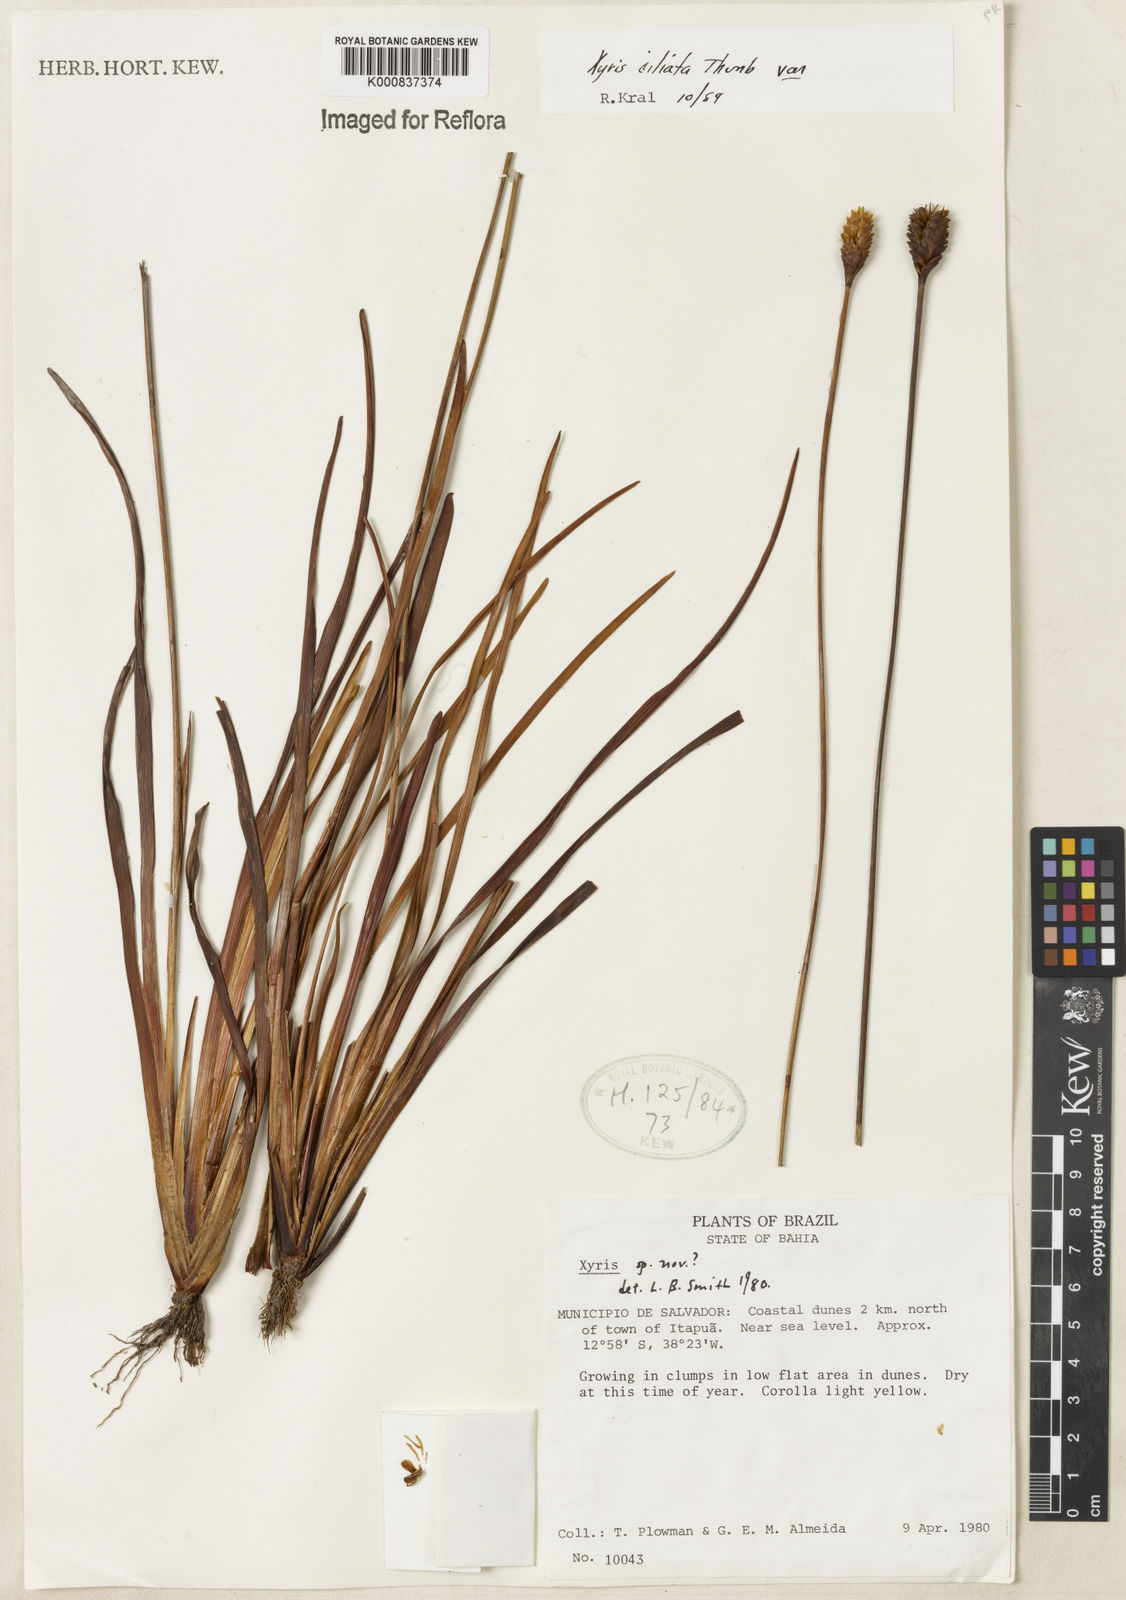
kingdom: Plantae
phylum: Tracheophyta
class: Liliopsida
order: Poales
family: Xyridaceae
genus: Xyris
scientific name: Xyris ciliata
